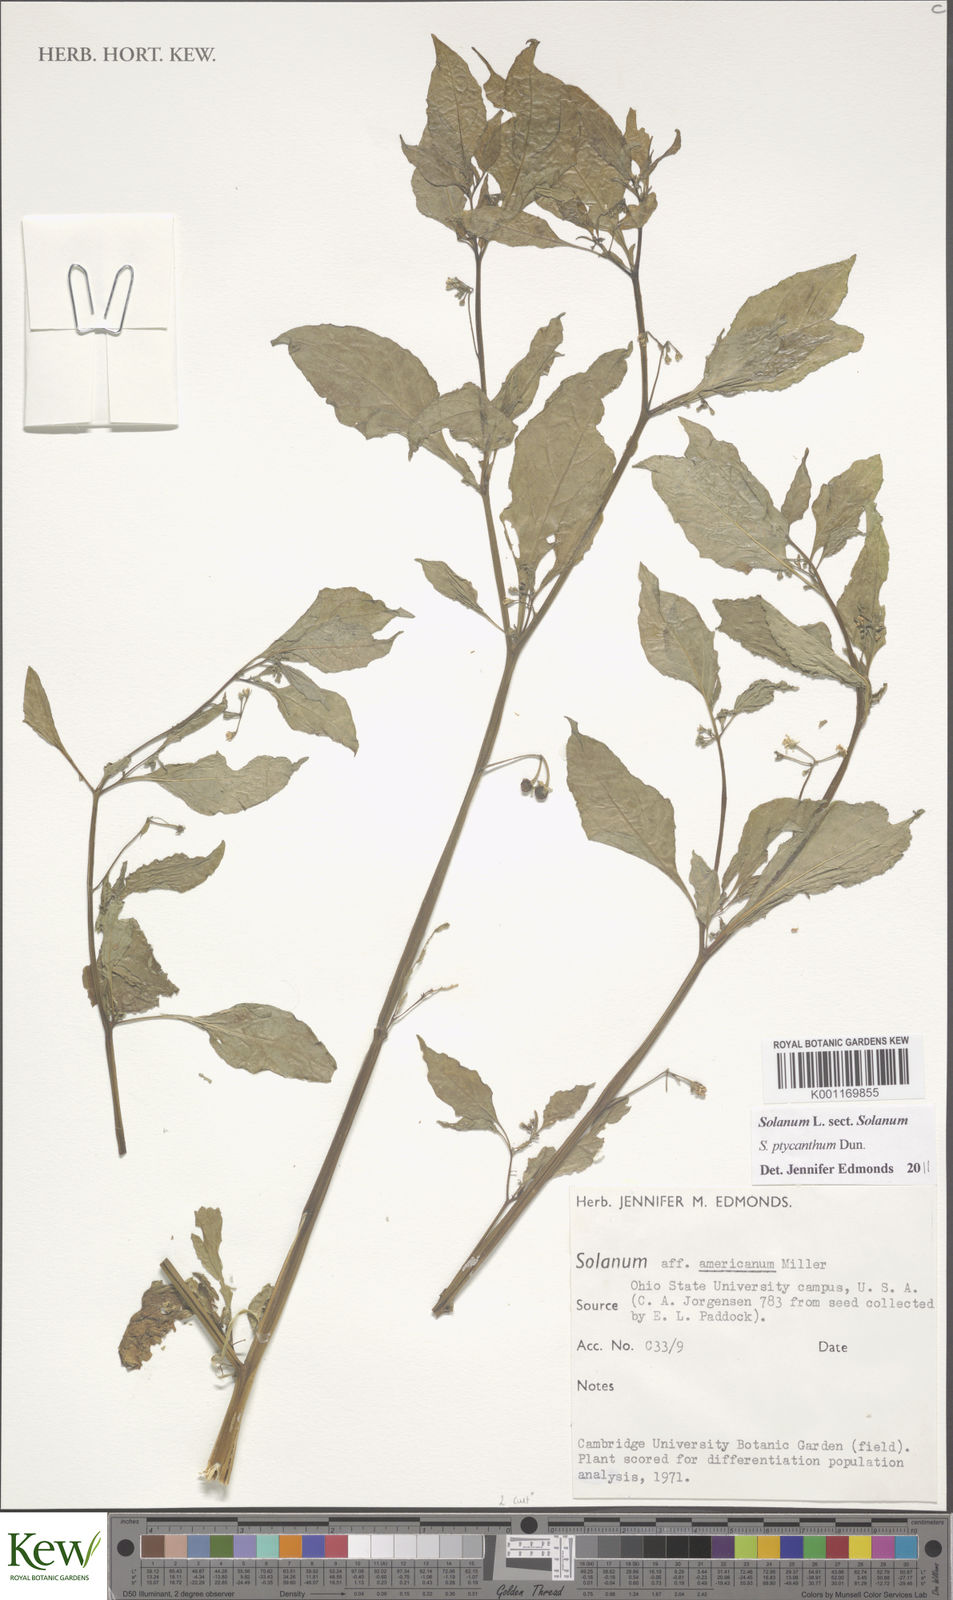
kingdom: Plantae
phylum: Tracheophyta
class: Magnoliopsida
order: Solanales
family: Solanaceae
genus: Solanum
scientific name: Solanum americanum
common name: American black nightshade
